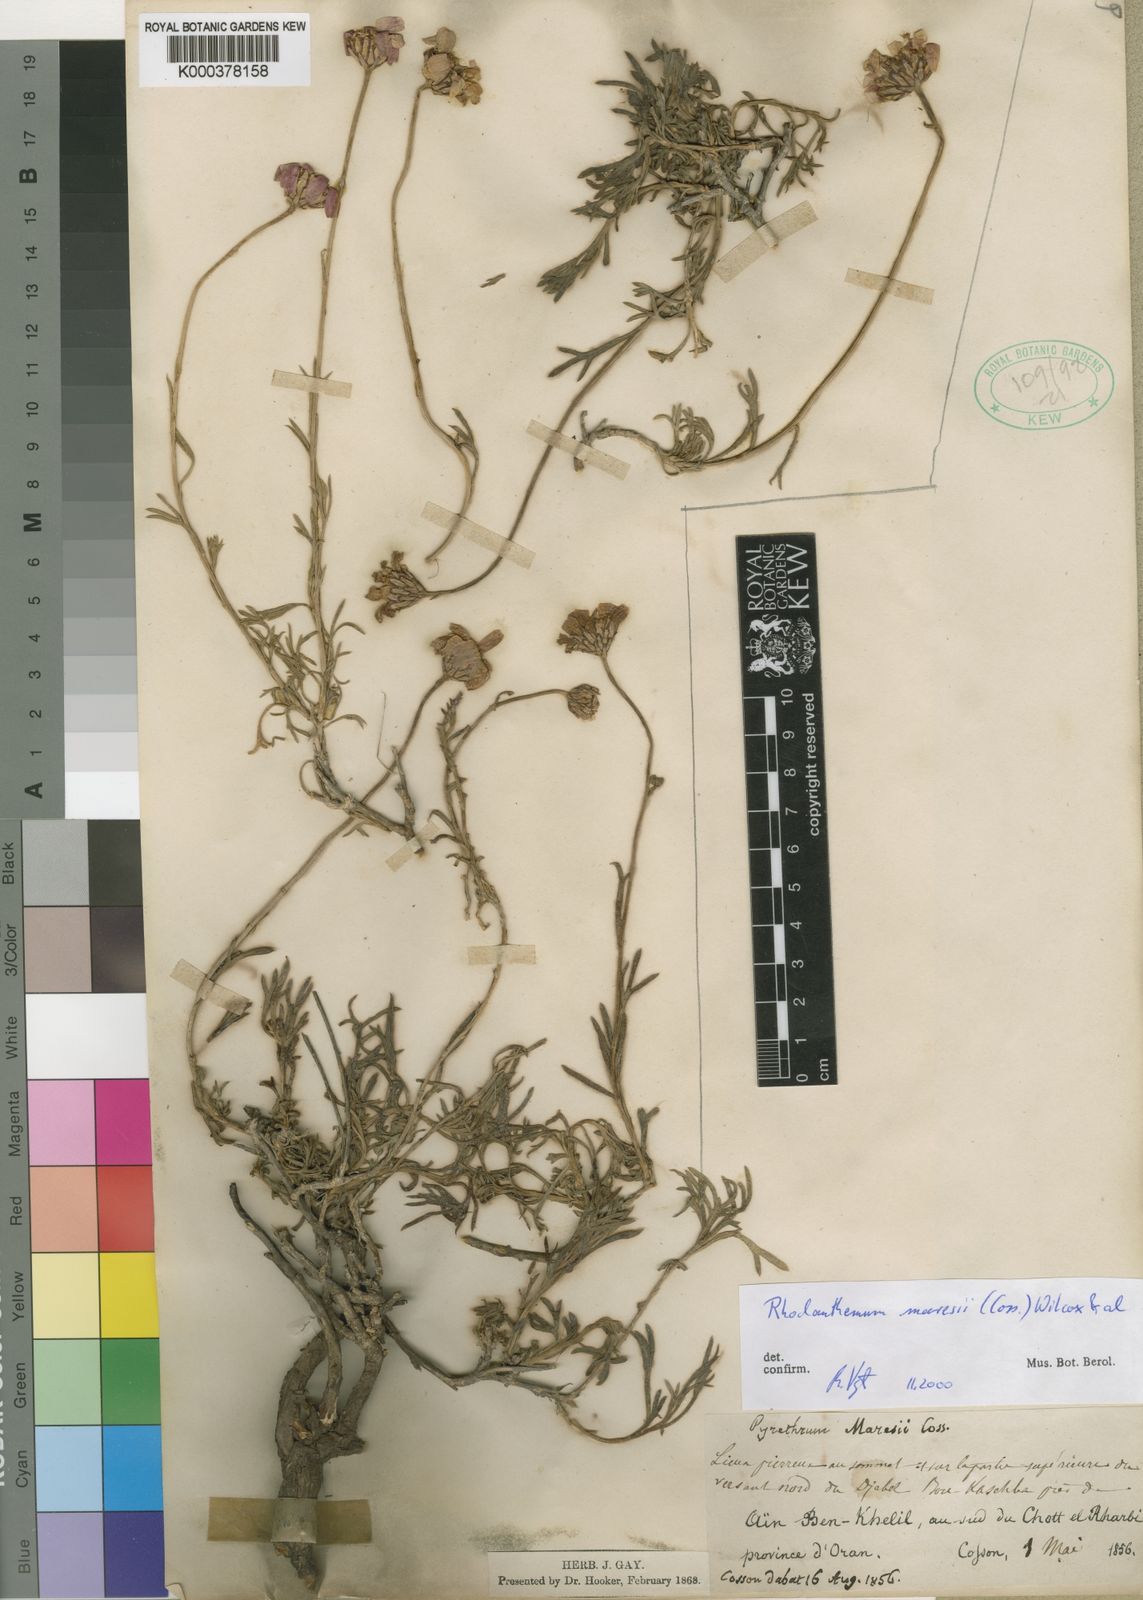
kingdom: Plantae
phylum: Tracheophyta
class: Magnoliopsida
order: Asterales
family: Asteraceae
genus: Rhodanthemum
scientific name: Rhodanthemum
